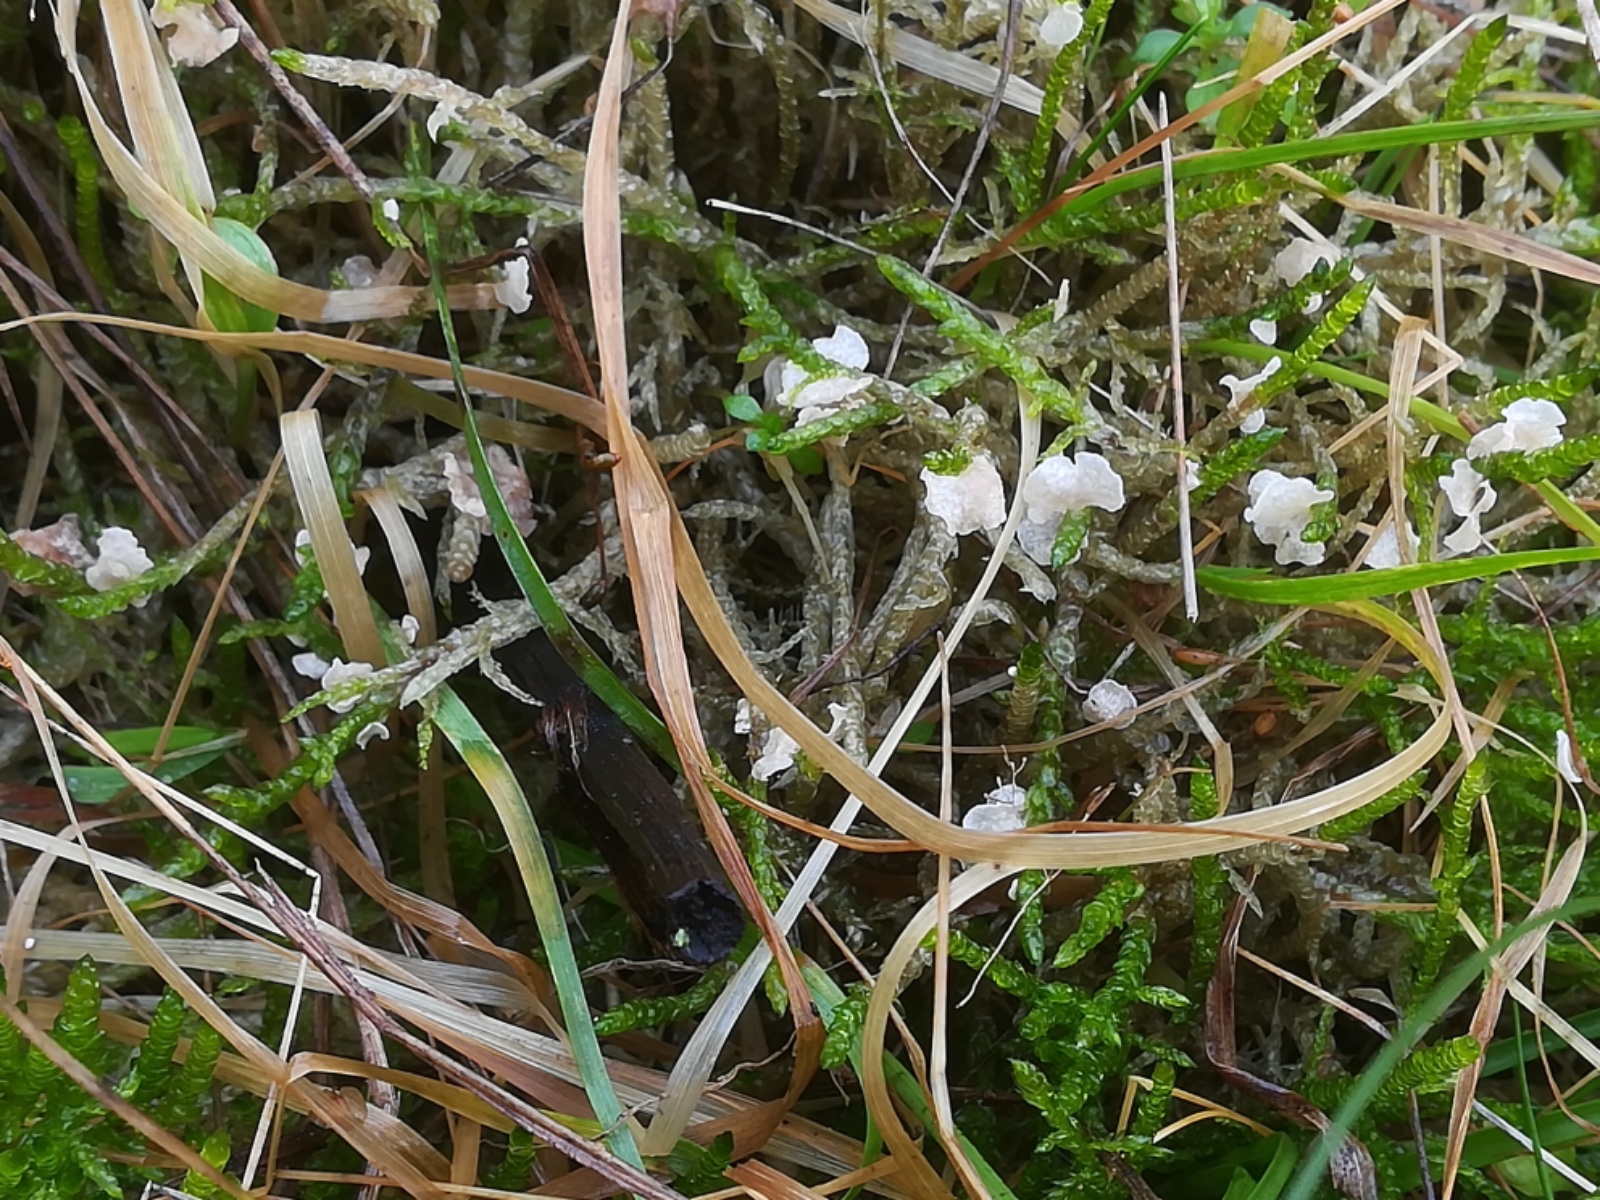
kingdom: Fungi
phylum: Basidiomycota
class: Agaricomycetes
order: Agaricales
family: Hygrophoraceae
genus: Arrhenia
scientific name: Arrhenia retiruga
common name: lille fontænehat
